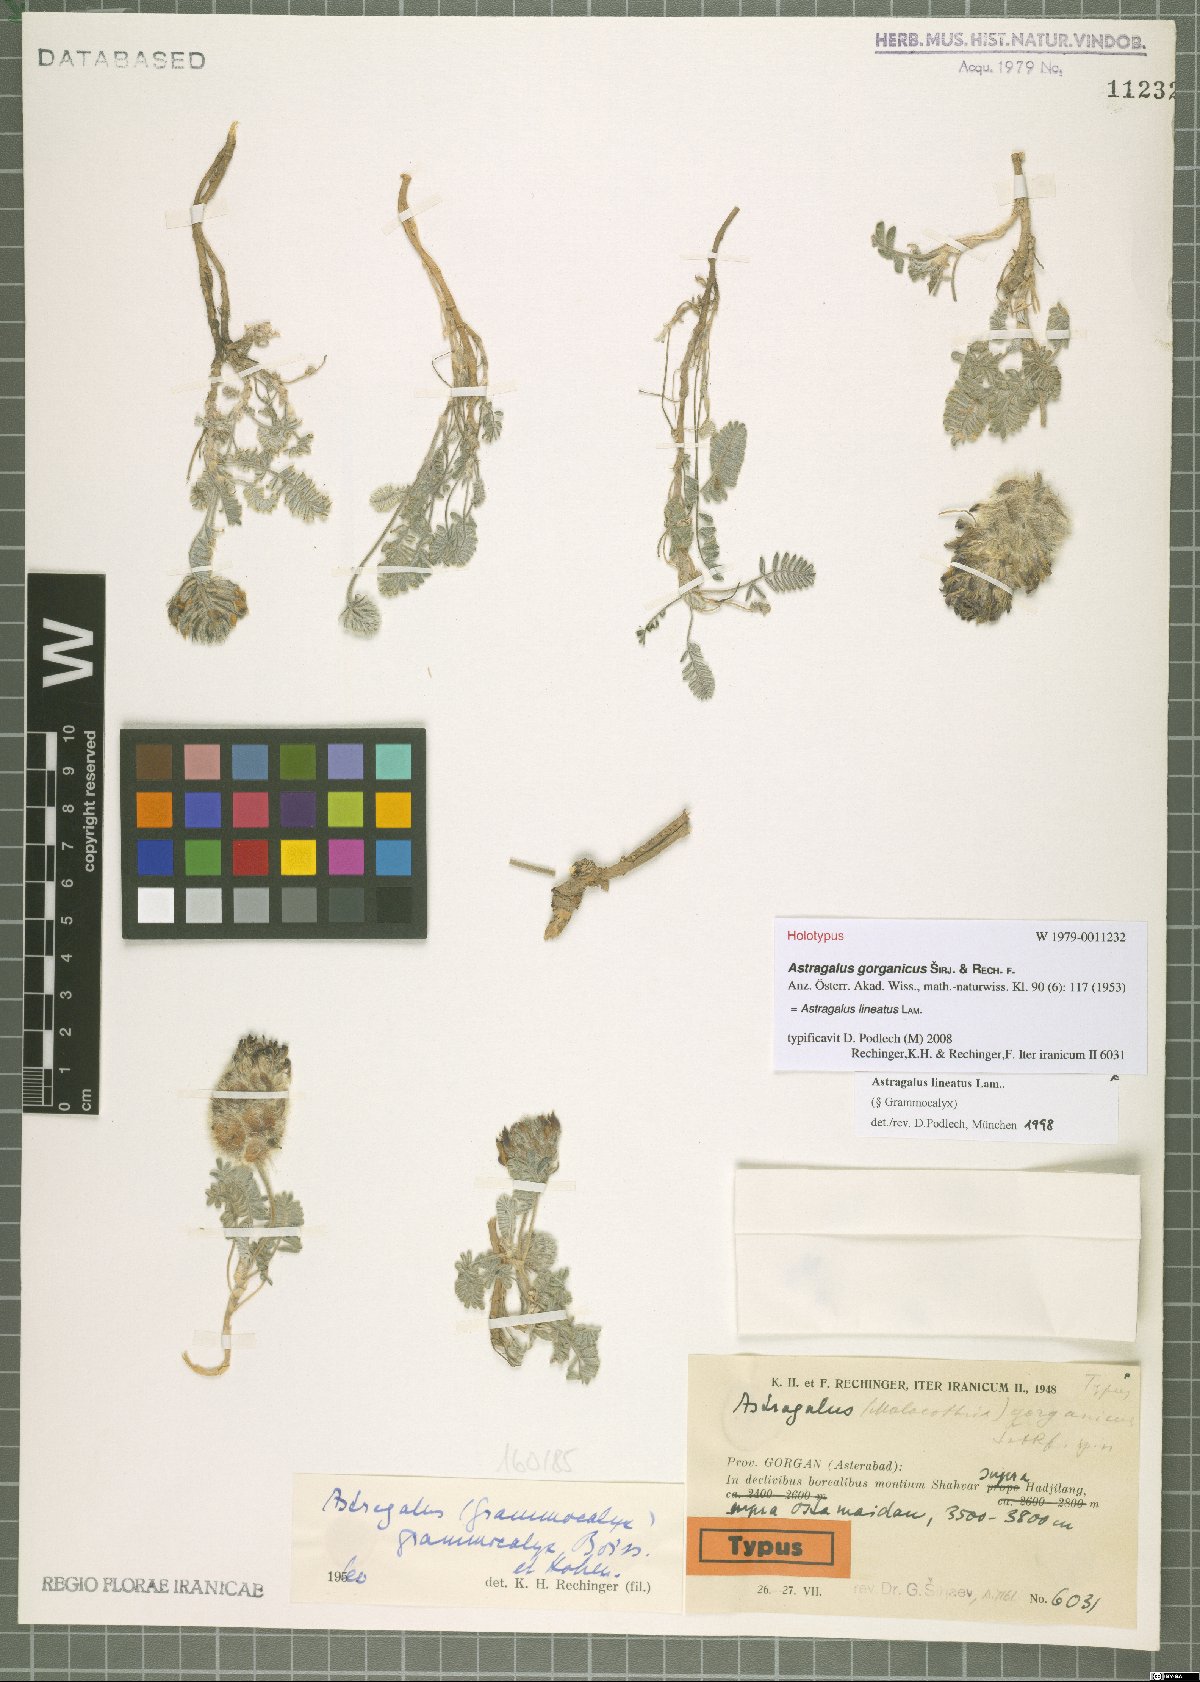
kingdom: Plantae
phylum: Tracheophyta
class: Magnoliopsida
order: Fabales
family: Fabaceae
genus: Astragalus
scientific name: Astragalus lineatus
